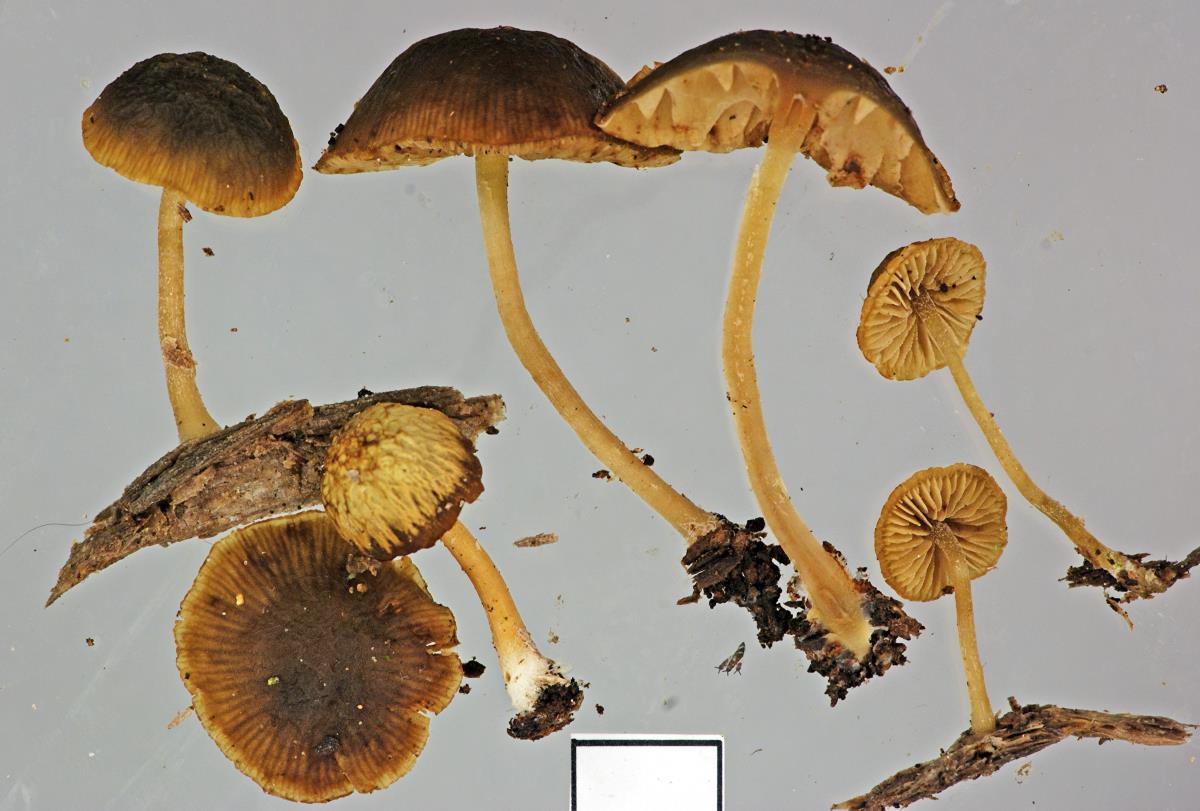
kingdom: Fungi
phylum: Basidiomycota
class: Agaricomycetes
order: Agaricales
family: Crepidotaceae
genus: Simocybe
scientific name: Simocybe phlebophora
